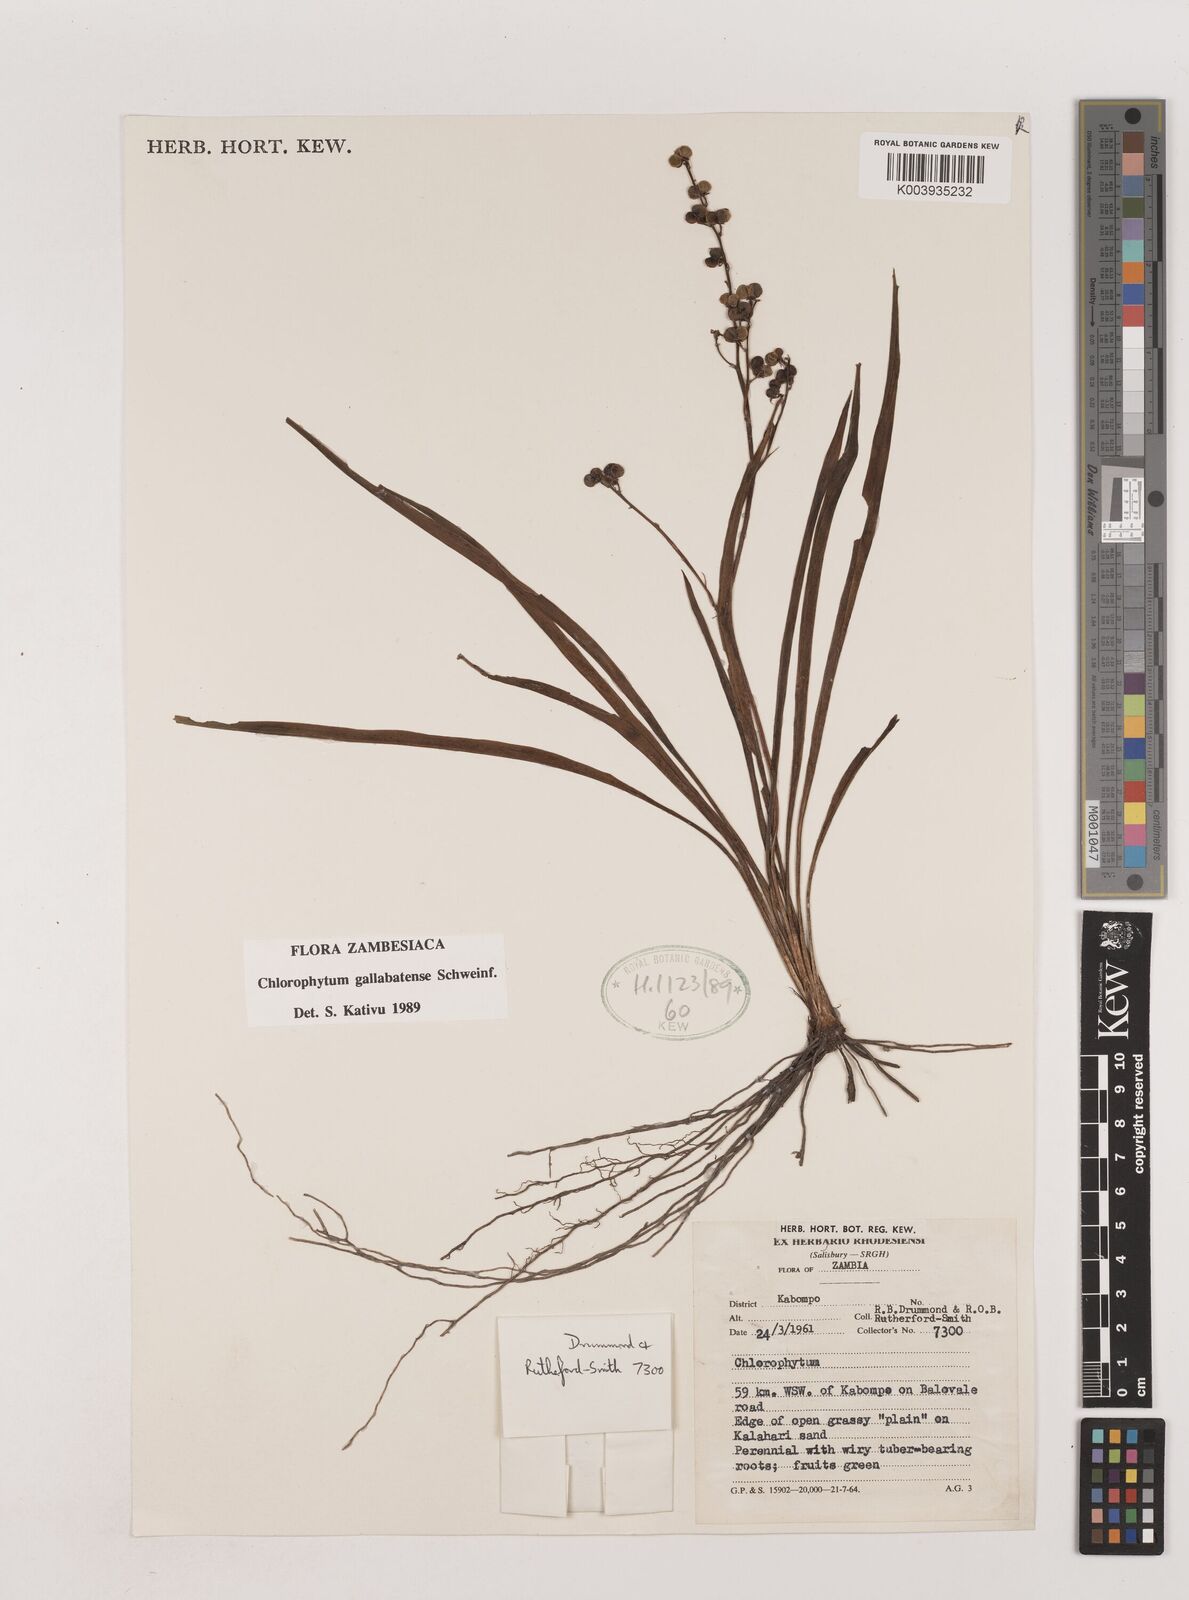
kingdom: Plantae
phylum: Tracheophyta
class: Liliopsida
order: Asparagales
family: Asparagaceae
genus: Chlorophytum
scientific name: Chlorophytum gallabatense
